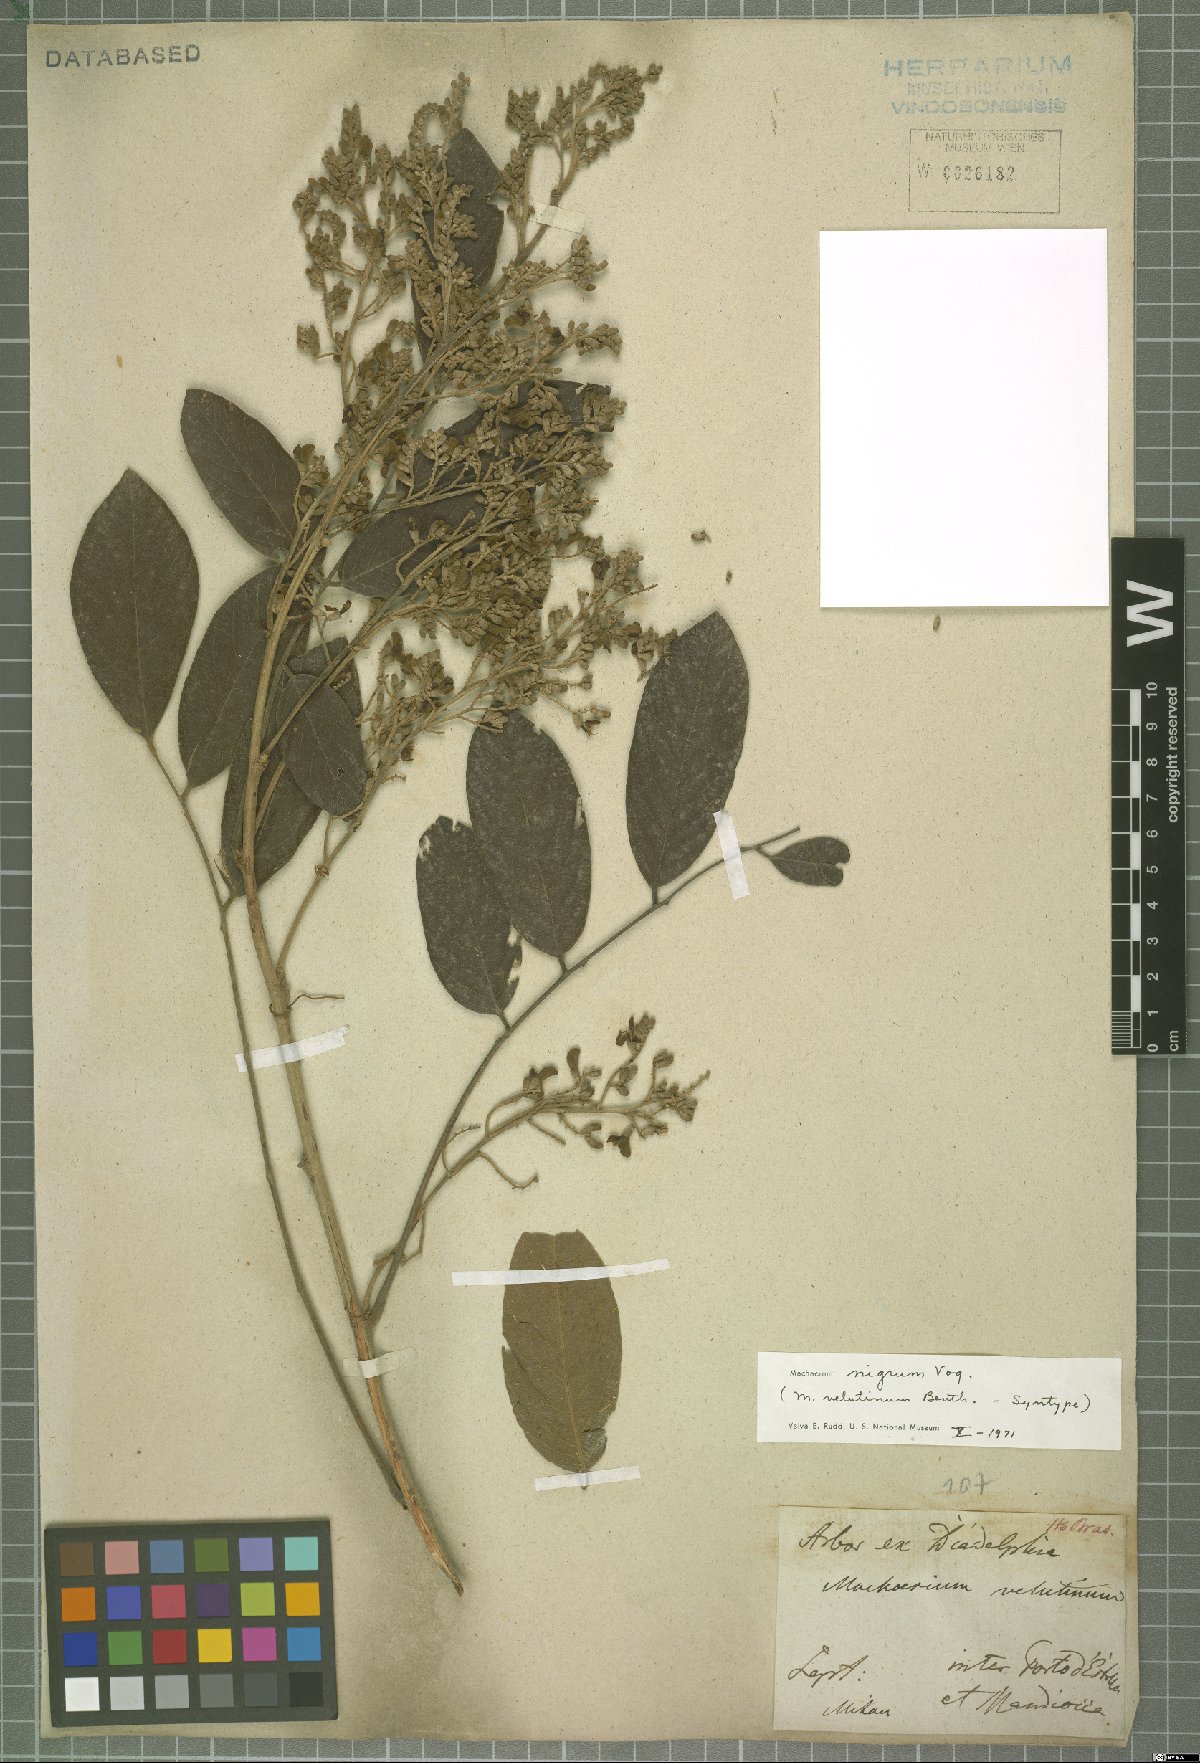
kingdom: Plantae
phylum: Tracheophyta
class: Magnoliopsida
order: Fabales
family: Fabaceae
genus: Machaerium
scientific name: Machaerium nigrum
